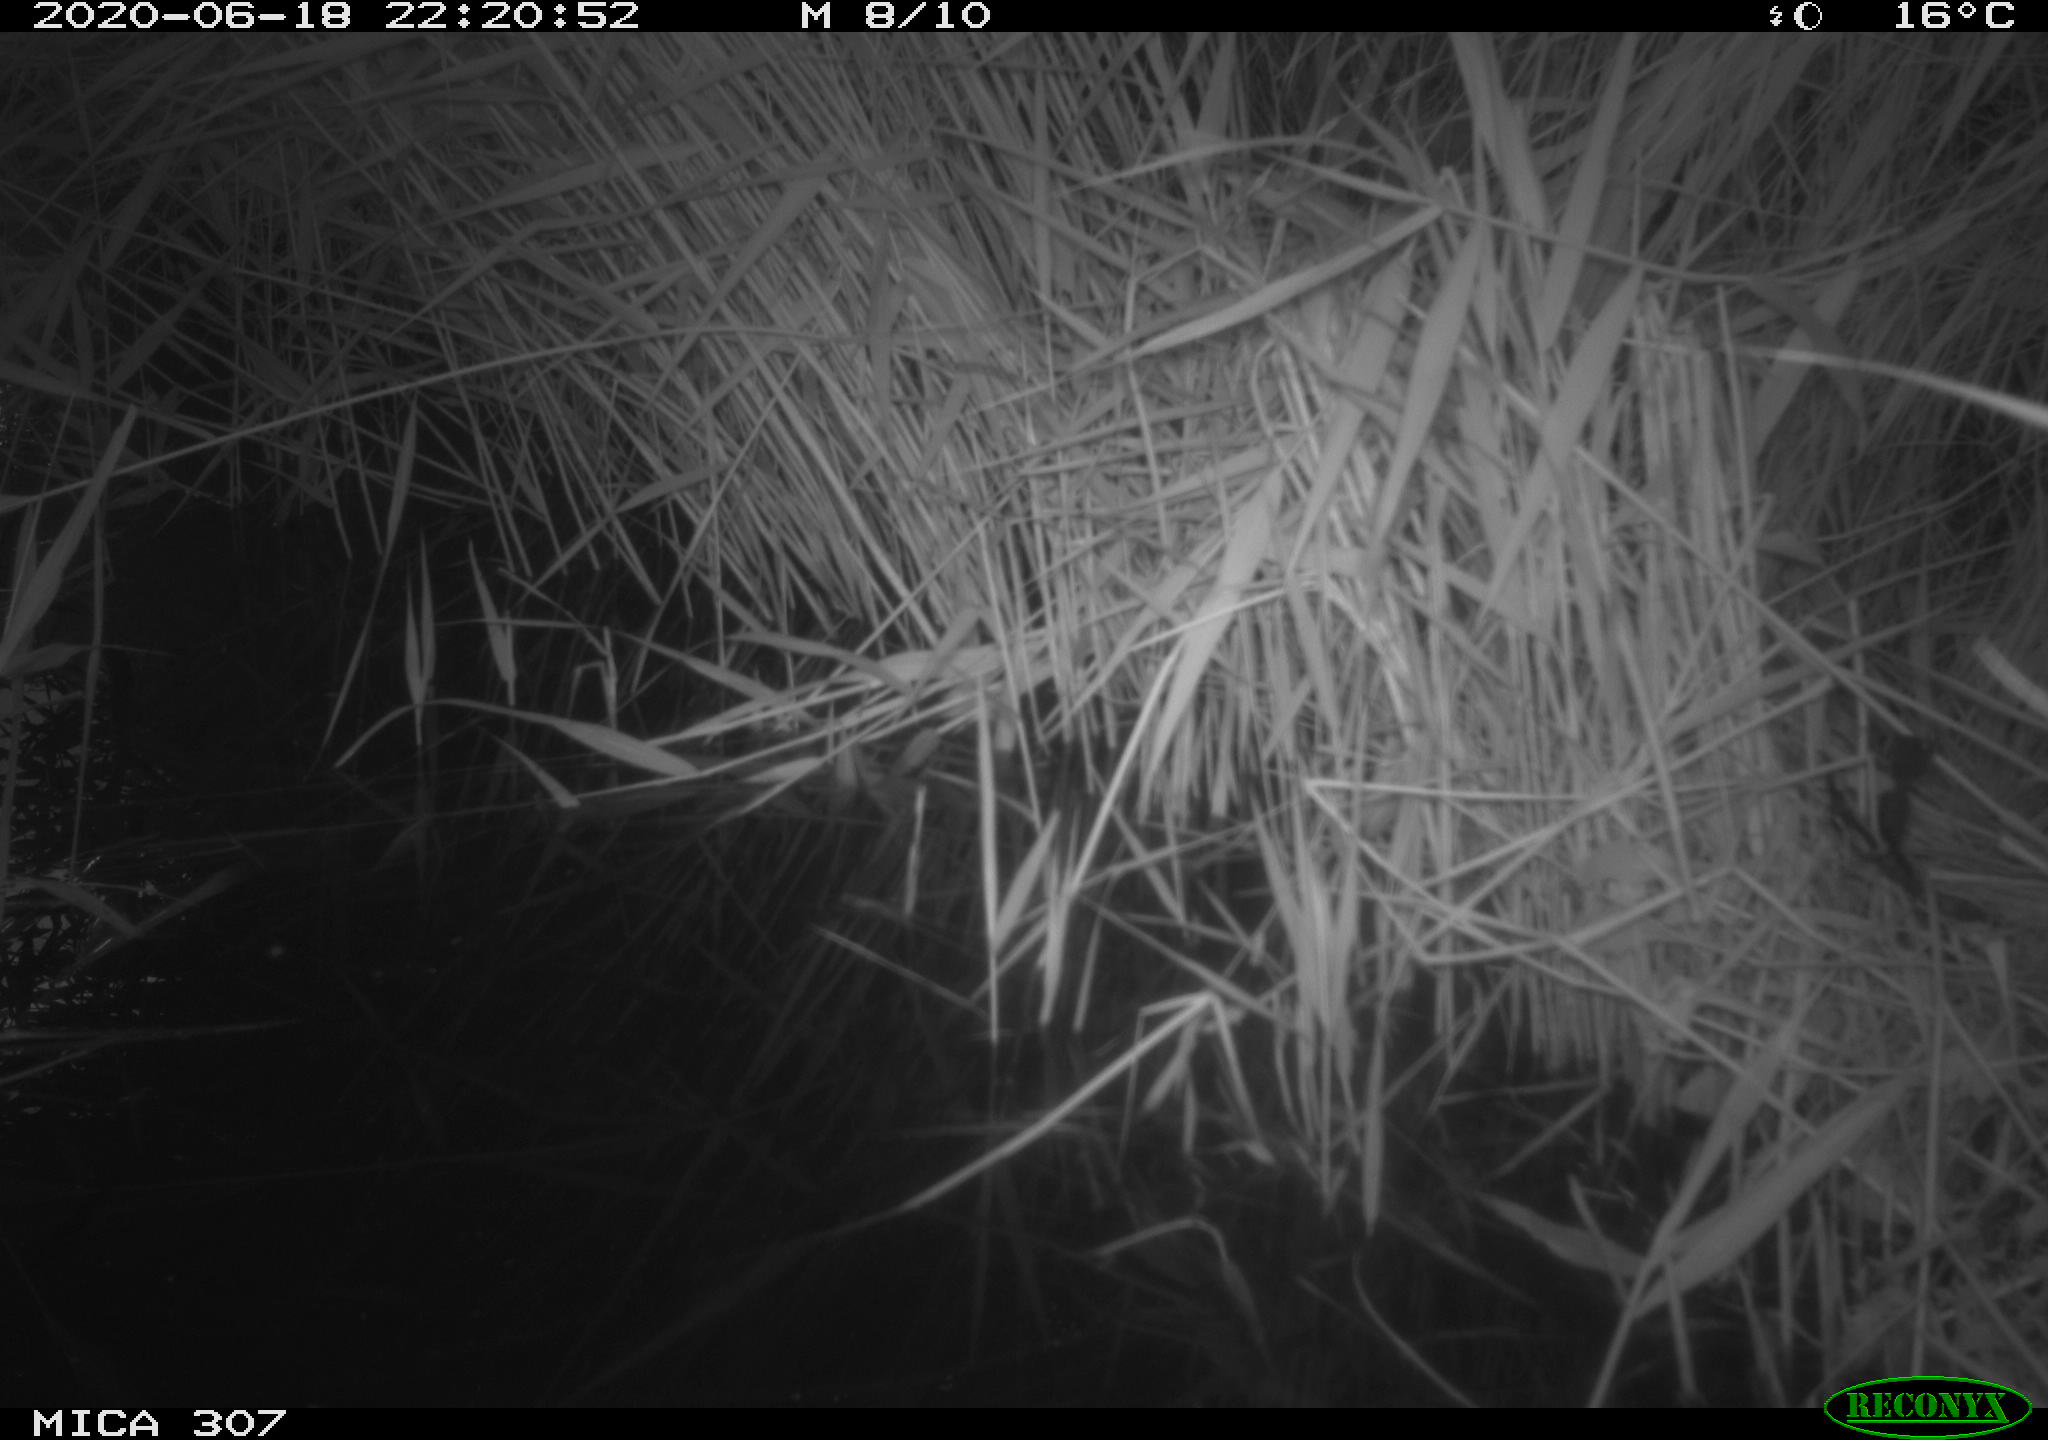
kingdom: Animalia
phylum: Chordata
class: Mammalia
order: Rodentia
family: Muridae
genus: Rattus
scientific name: Rattus norvegicus
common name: Brown rat
